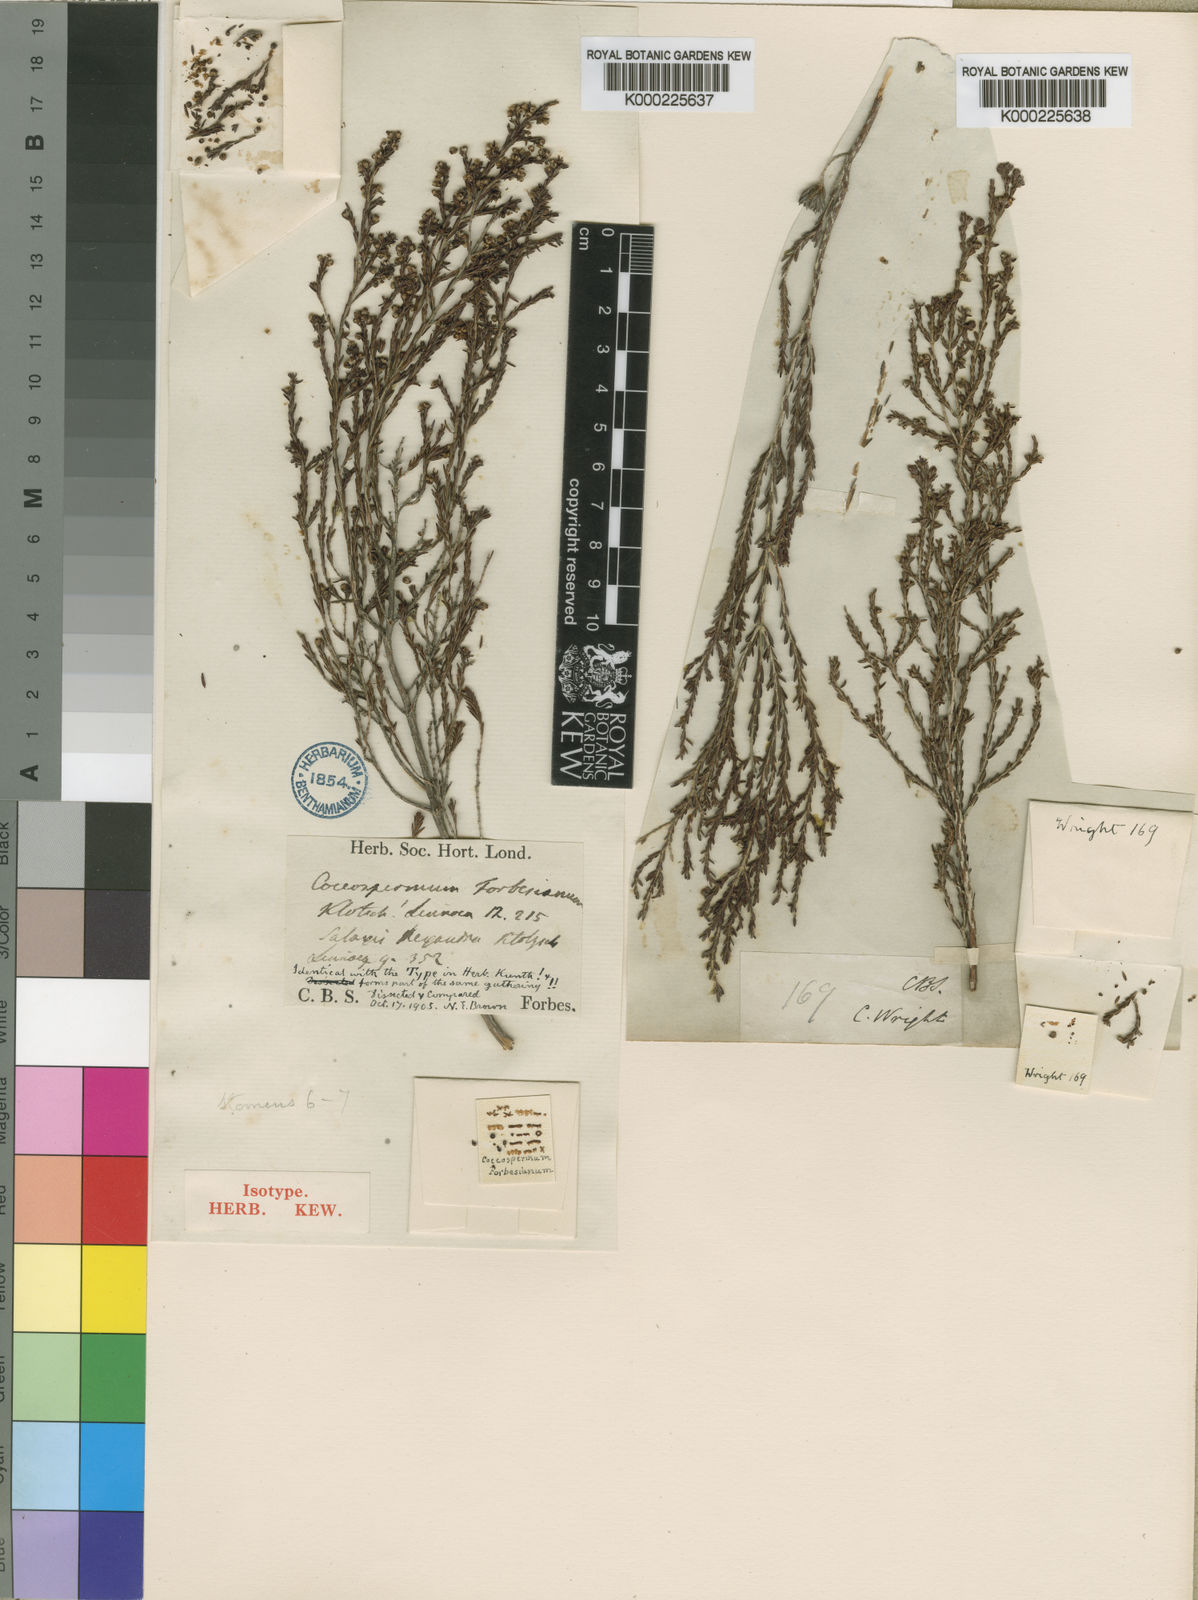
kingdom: Plantae
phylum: Tracheophyta
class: Magnoliopsida
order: Ericales
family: Ericaceae
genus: Erica
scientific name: Erica subcapitata
